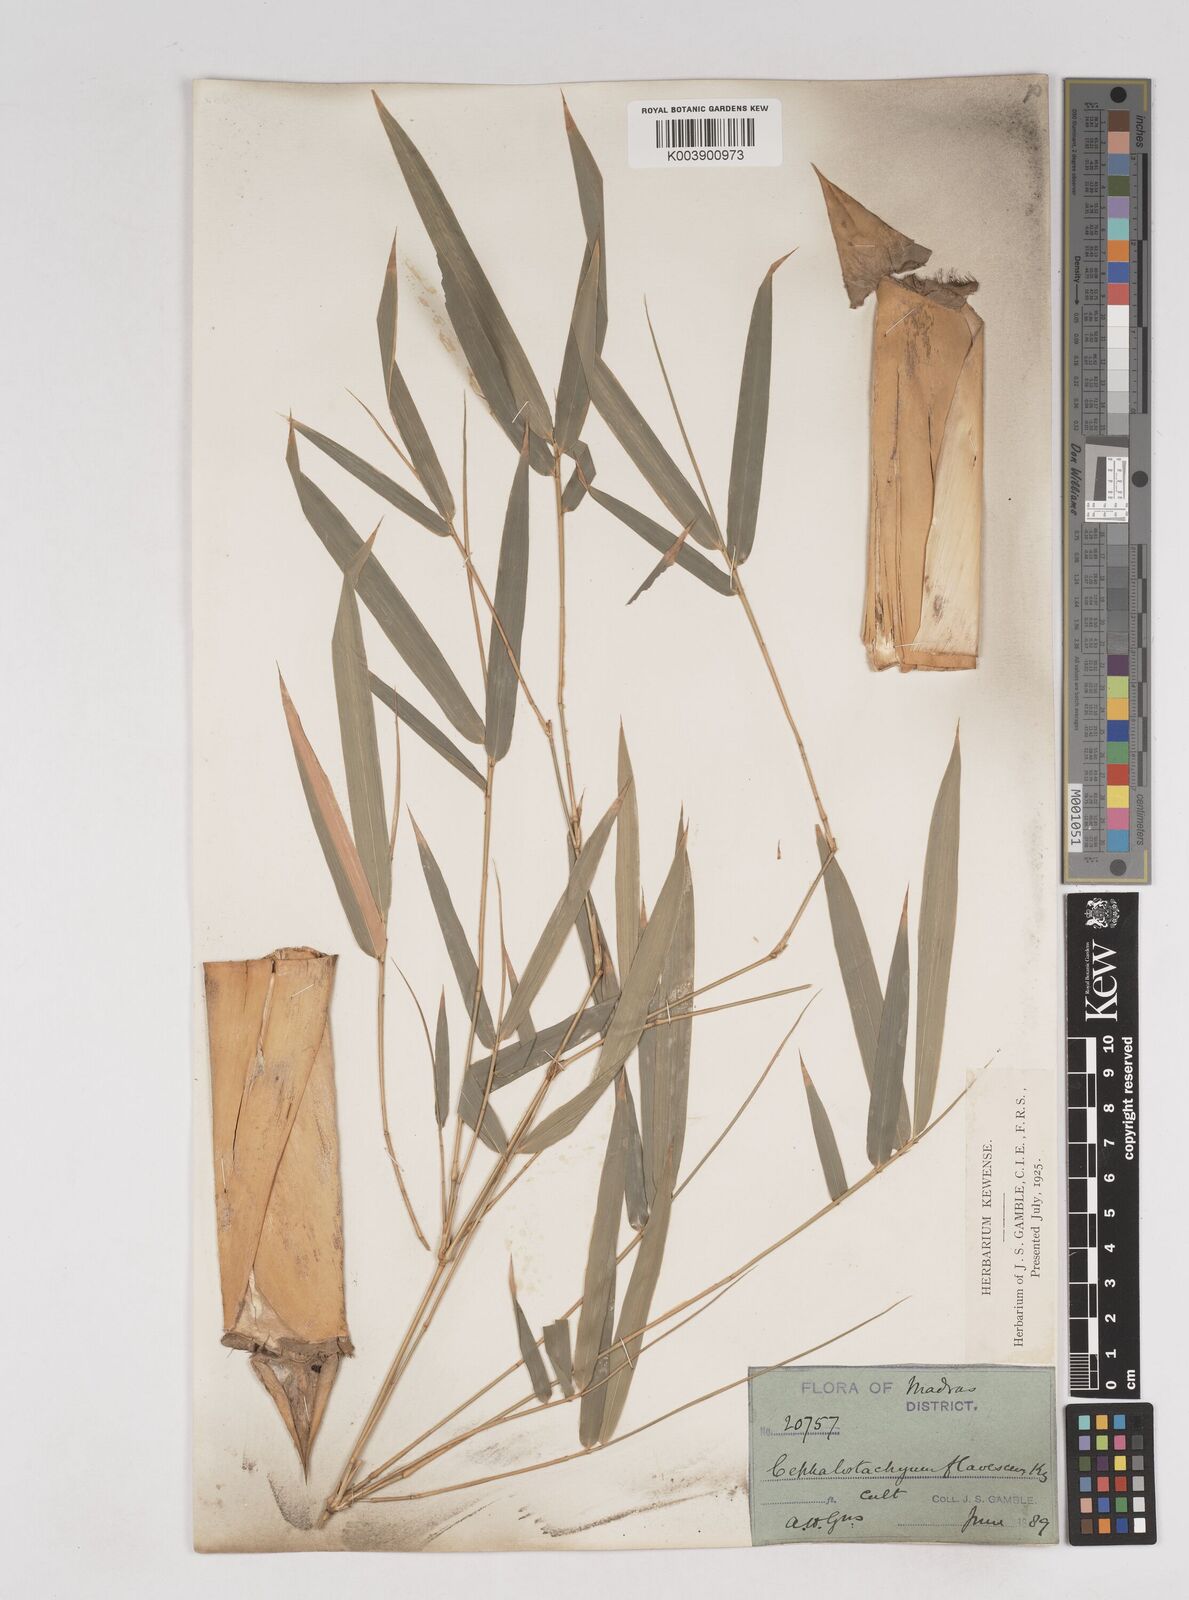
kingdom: Plantae
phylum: Tracheophyta
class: Liliopsida
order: Poales
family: Poaceae
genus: Cephalostachyum
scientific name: Cephalostachyum flavescens
